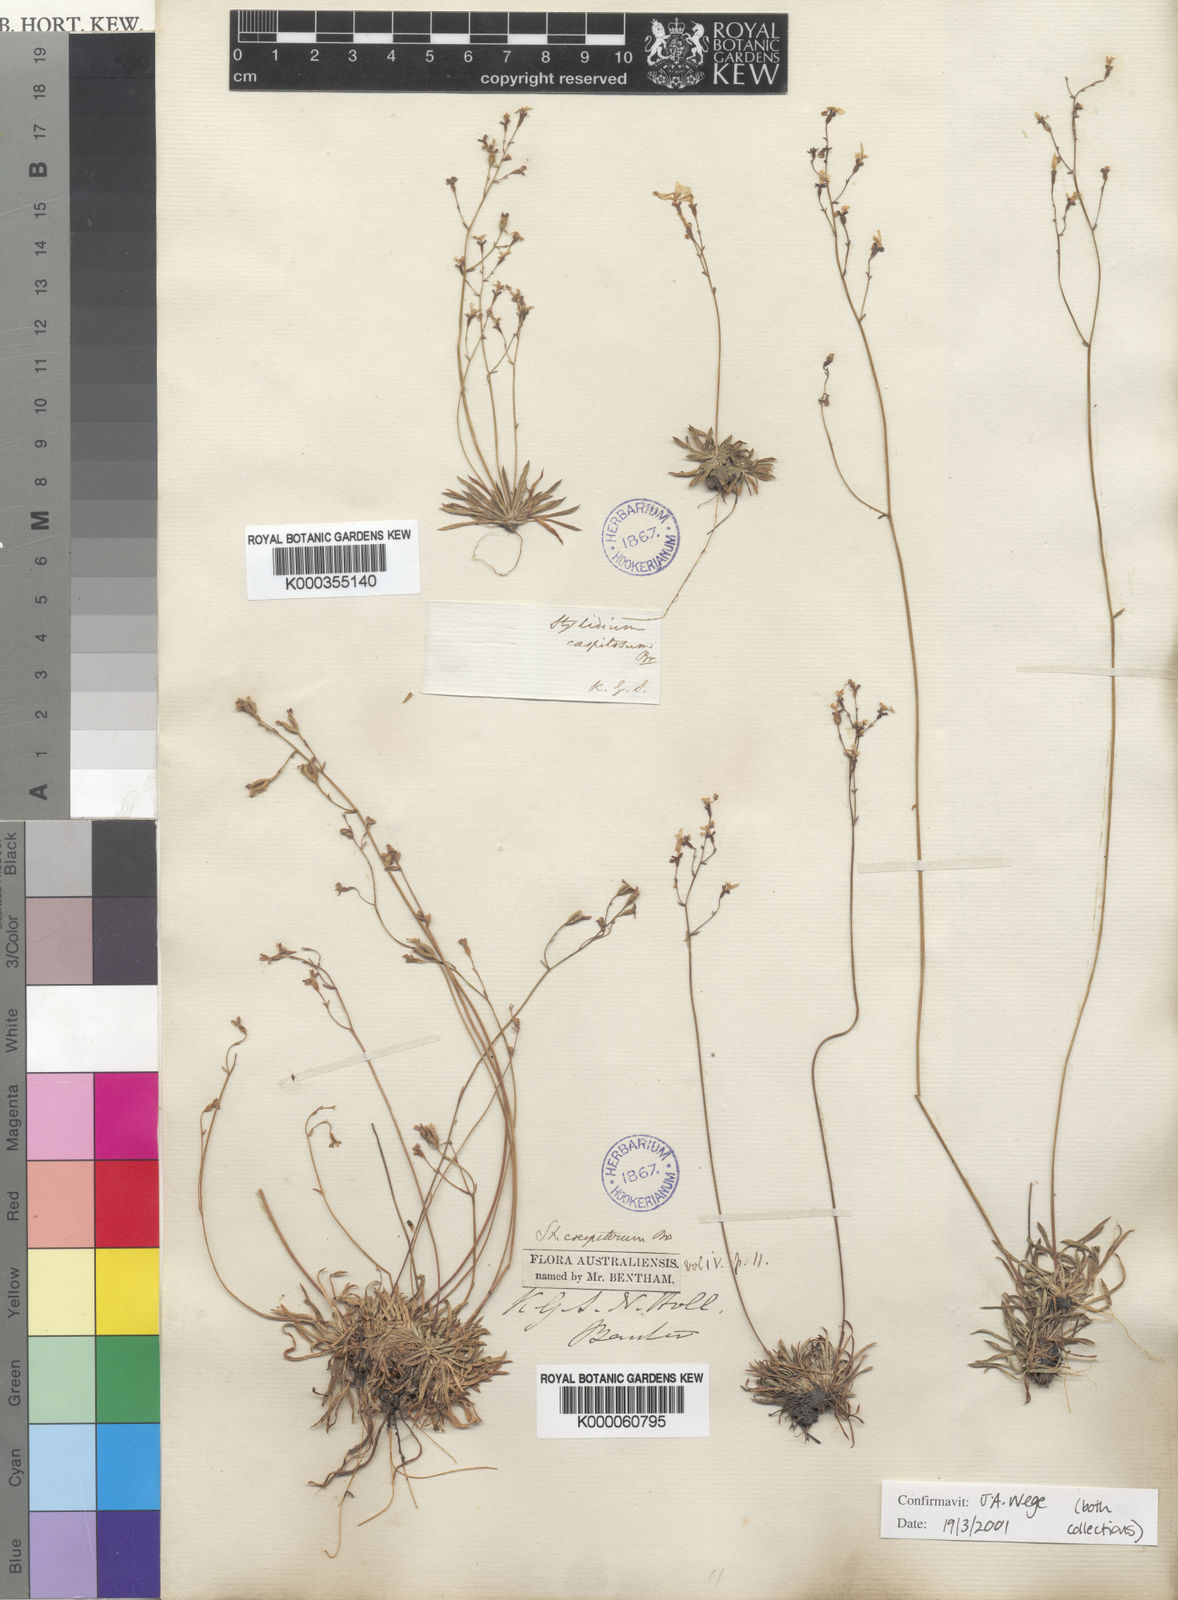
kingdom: Plantae
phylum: Tracheophyta
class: Magnoliopsida
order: Asterales
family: Stylidiaceae
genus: Stylidium
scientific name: Stylidium caespitosum
